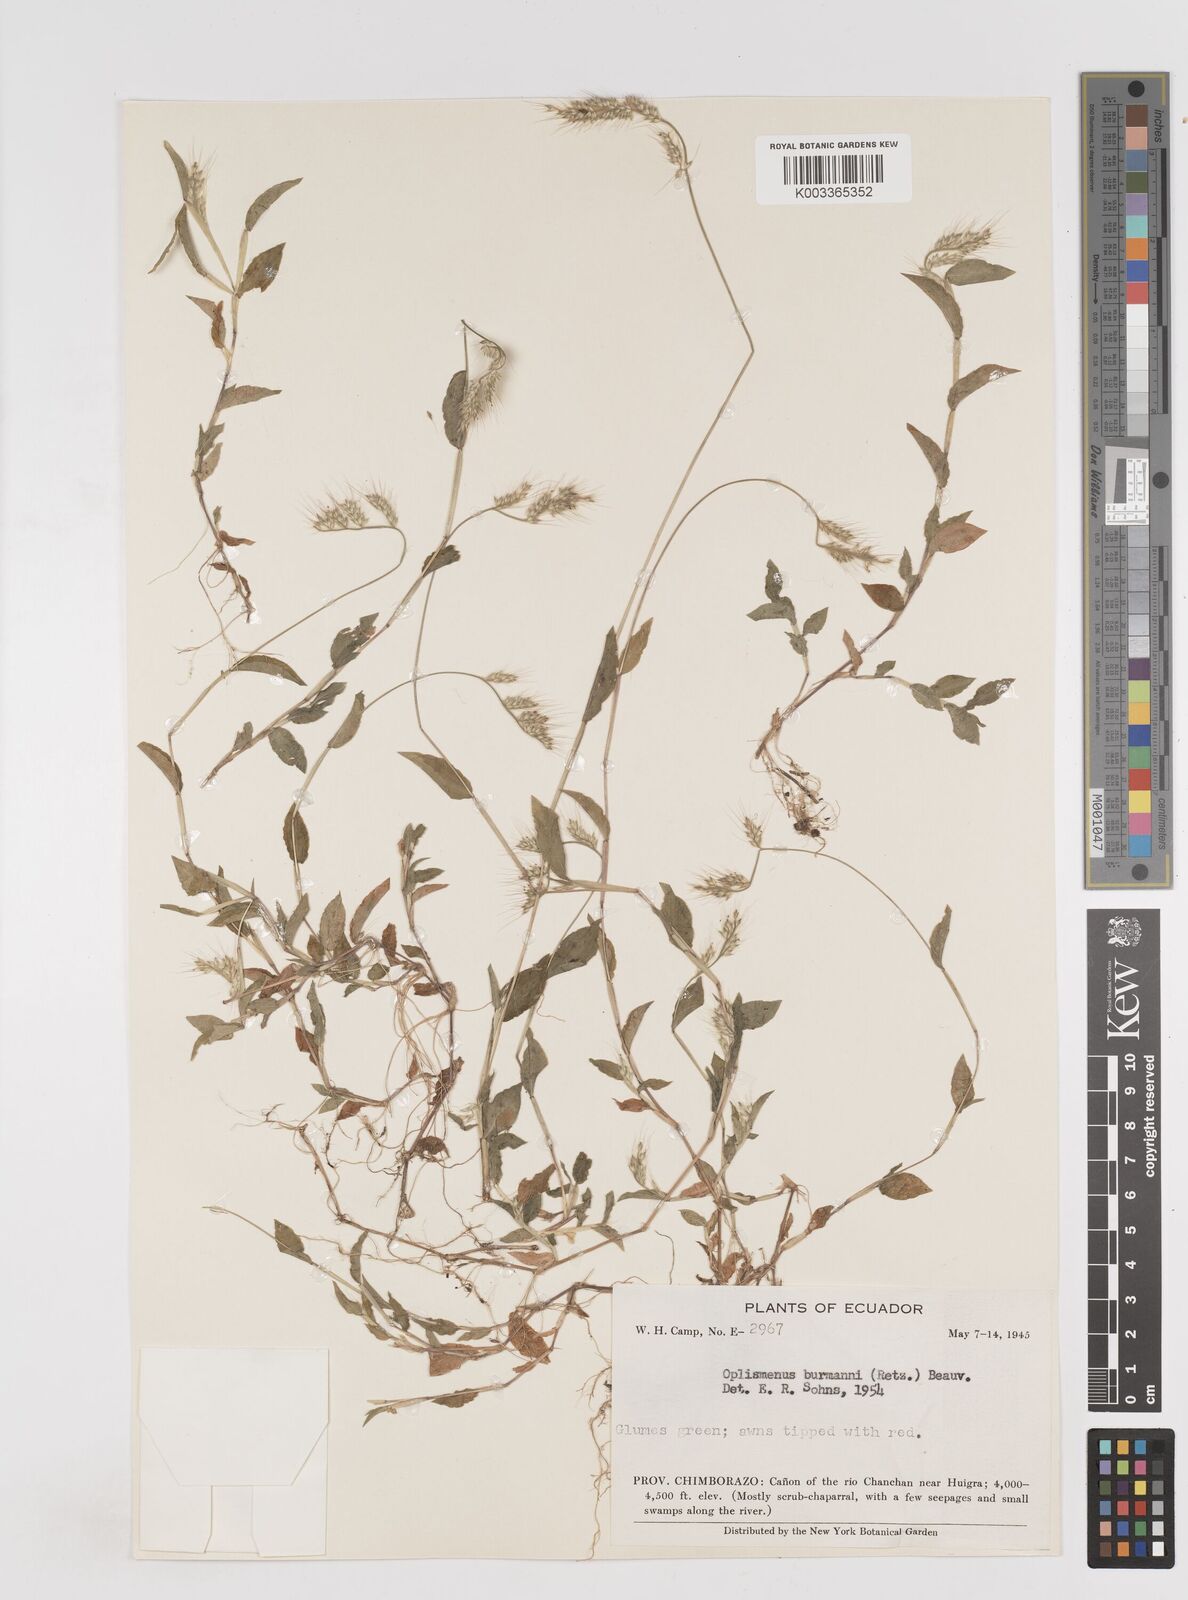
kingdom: Plantae
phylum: Tracheophyta
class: Liliopsida
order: Poales
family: Poaceae
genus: Oplismenus
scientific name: Oplismenus burmanni
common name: Burmann's basketgrass
